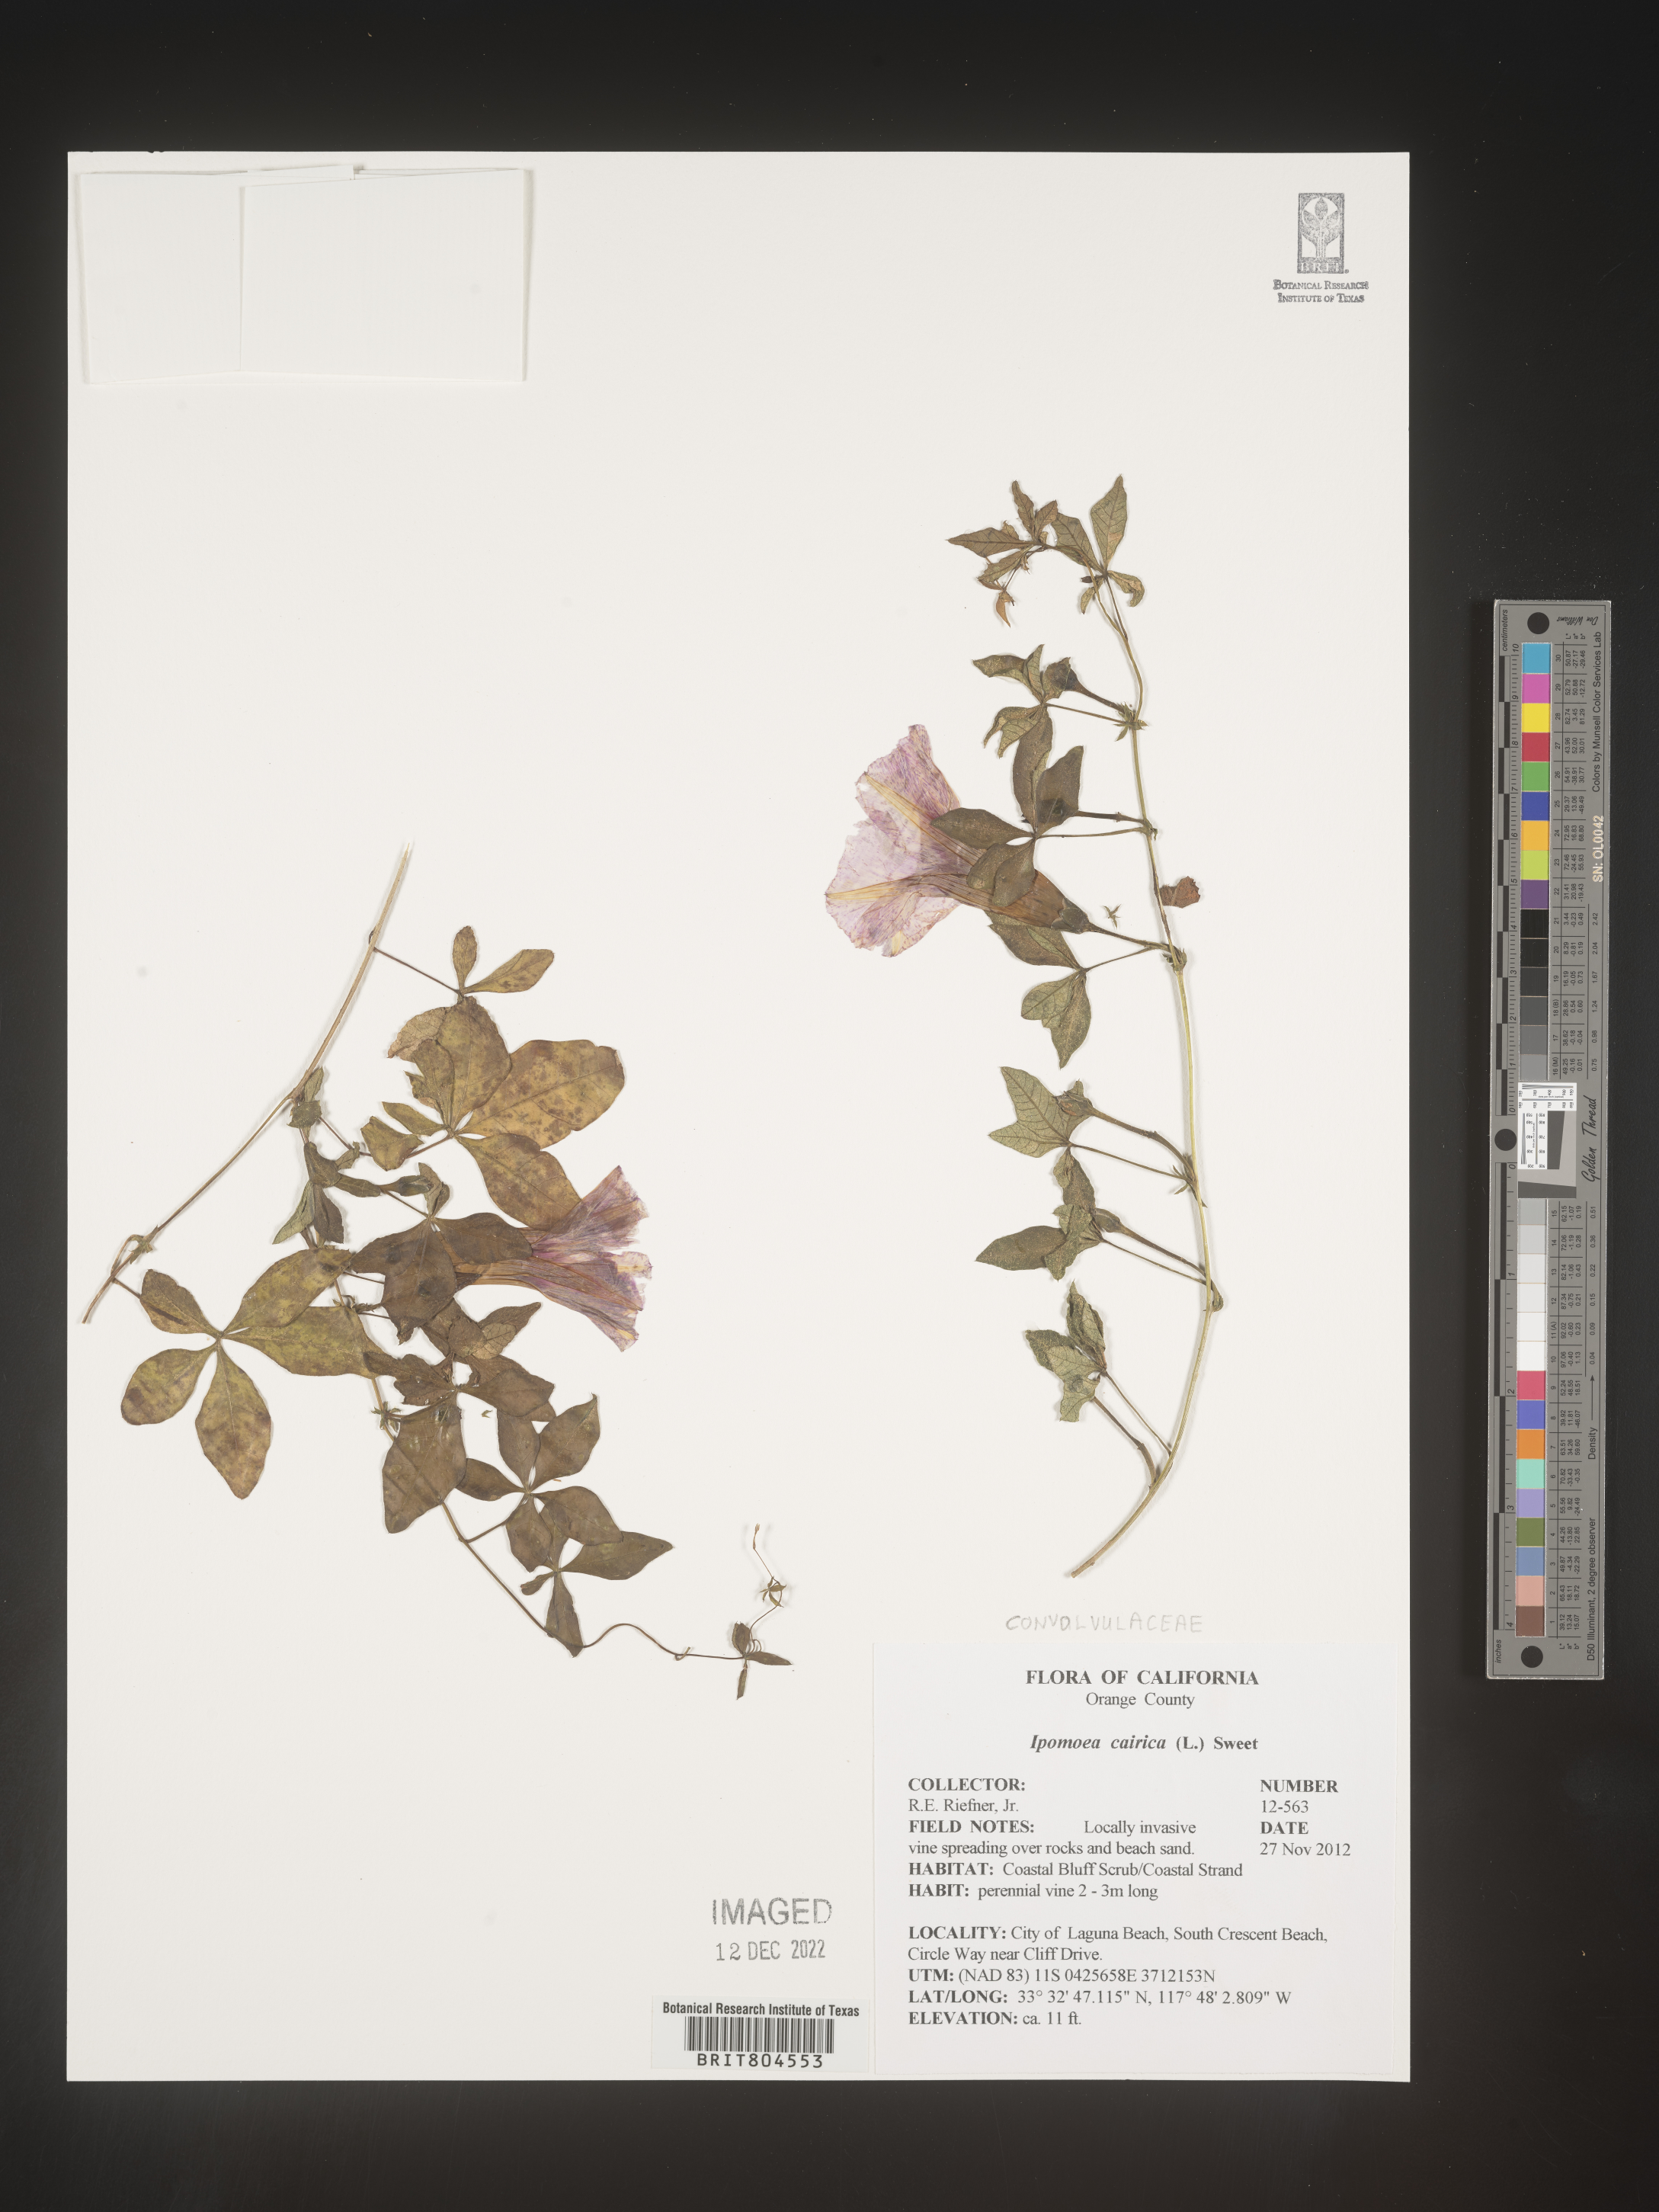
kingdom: Plantae
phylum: Tracheophyta
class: Magnoliopsida
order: Solanales
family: Convolvulaceae
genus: Ipomoea
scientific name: Ipomoea cairica
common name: Mile a minute vine
